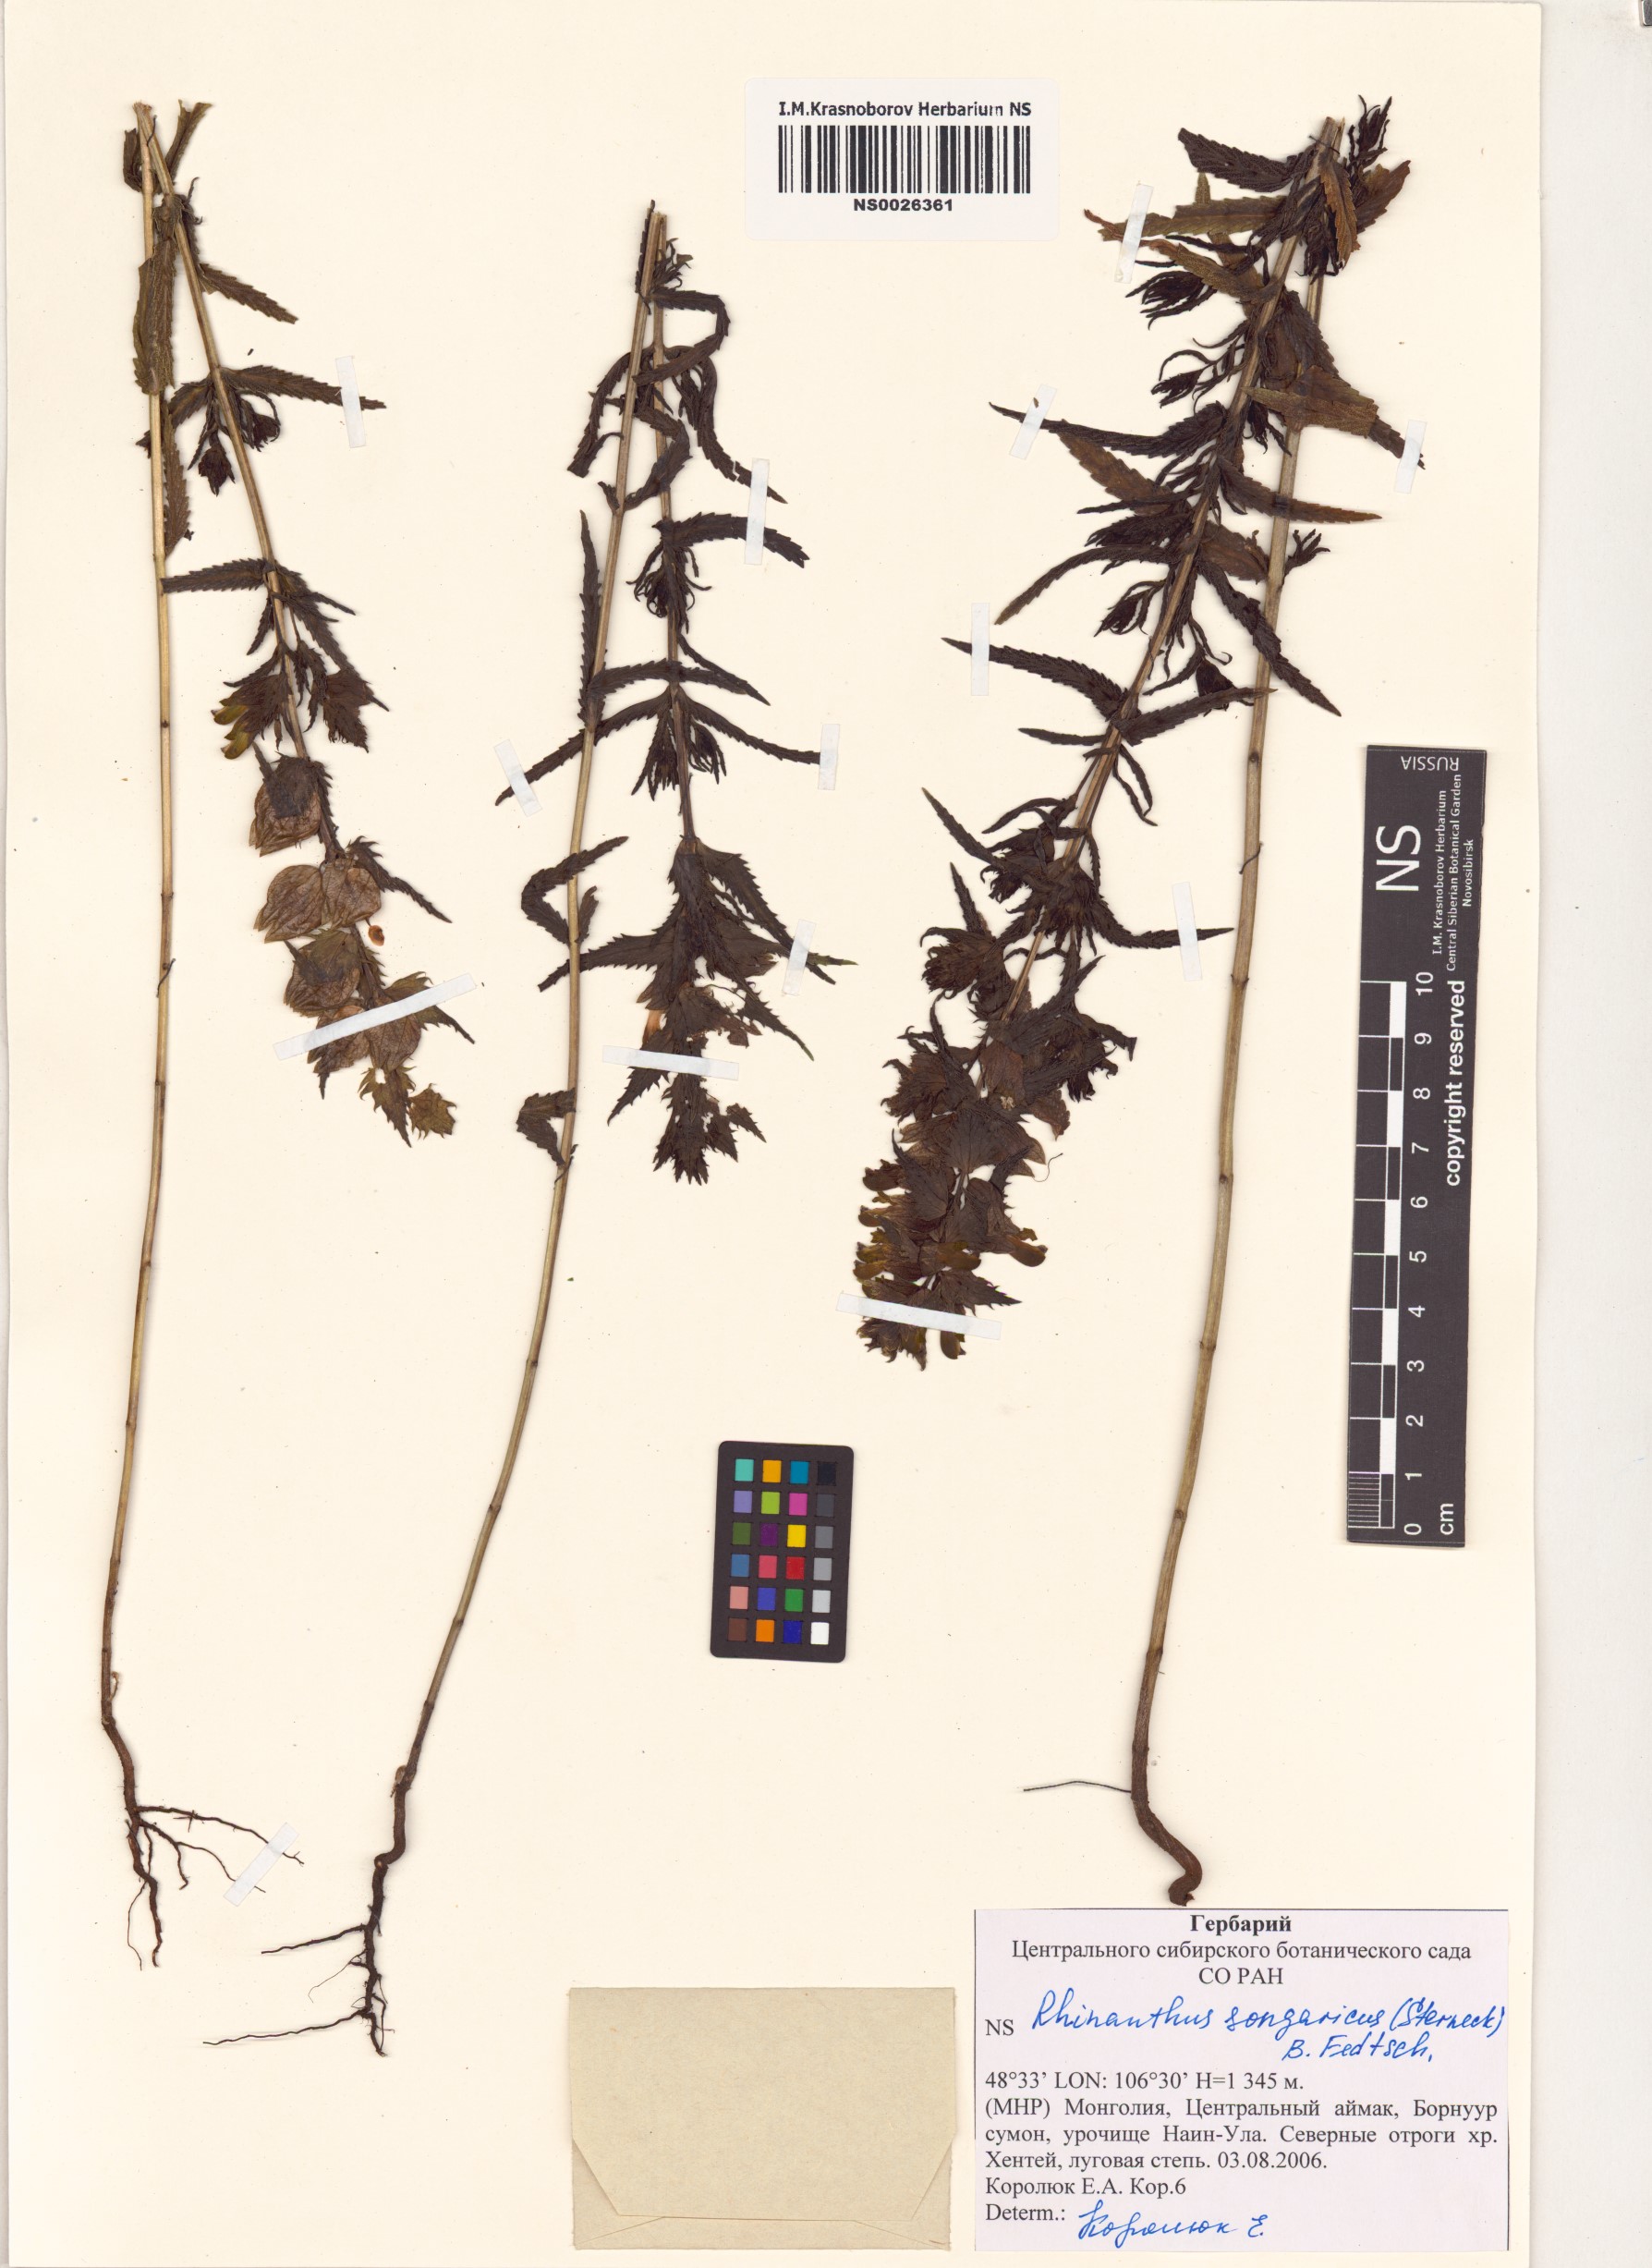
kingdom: Plantae
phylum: Tracheophyta
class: Magnoliopsida
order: Lamiales
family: Orobanchaceae
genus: Rhinanthus
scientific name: Rhinanthus songaricus
